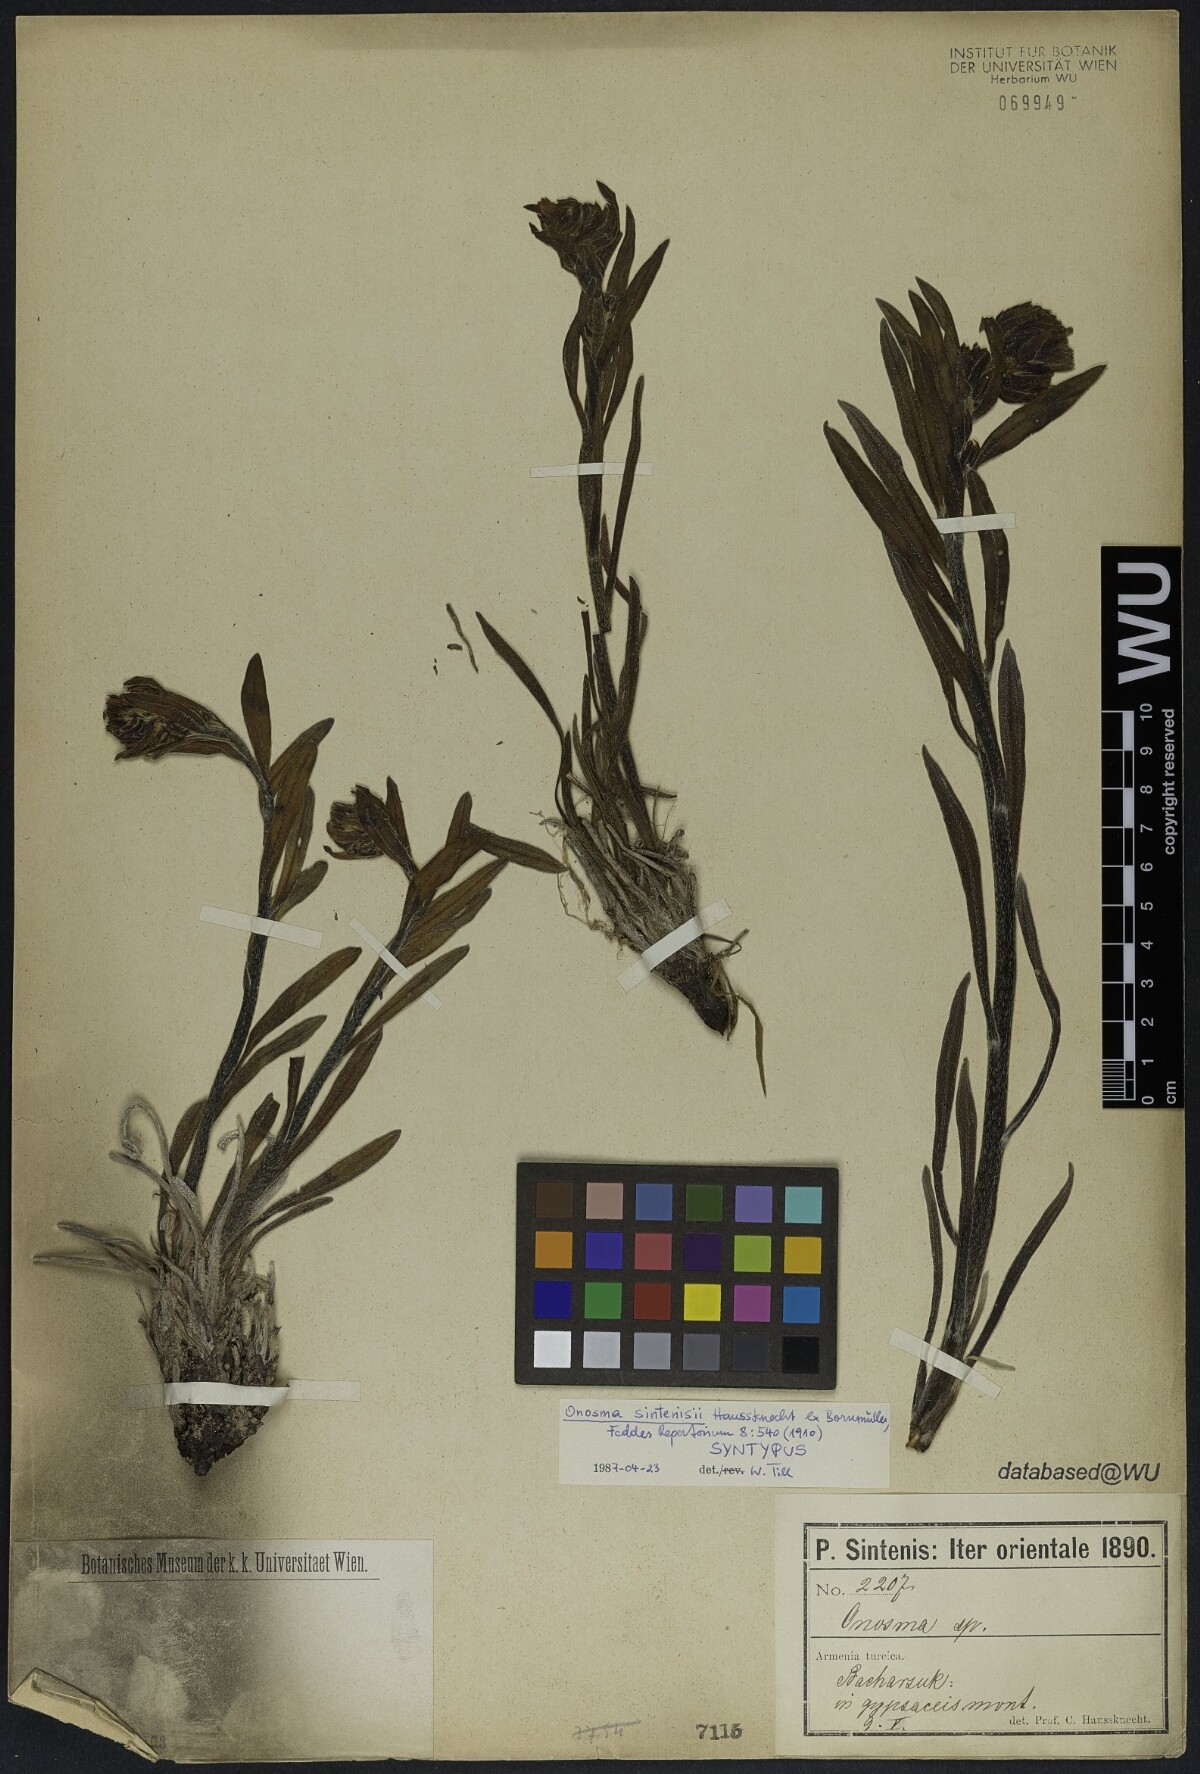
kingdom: Plantae
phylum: Tracheophyta
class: Magnoliopsida
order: Boraginales
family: Boraginaceae
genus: Podonosma
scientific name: Podonosma sintenisii
